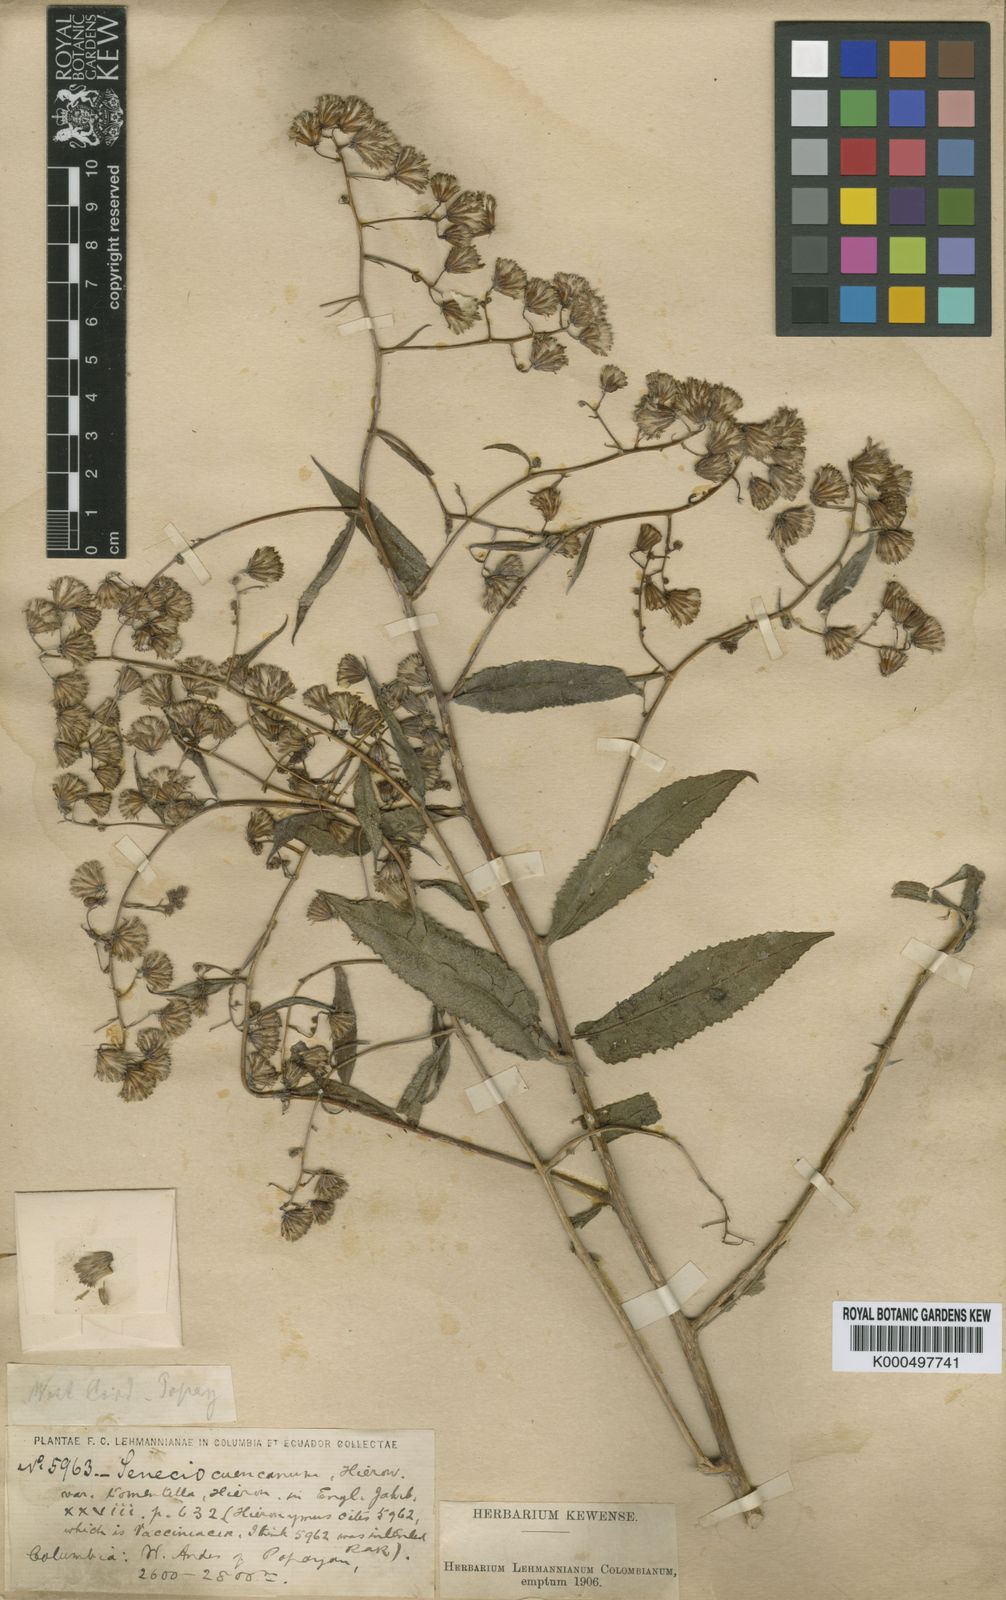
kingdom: Plantae
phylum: Tracheophyta
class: Magnoliopsida
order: Asterales
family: Asteraceae
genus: Aetheolaena
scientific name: Aetheolaena
